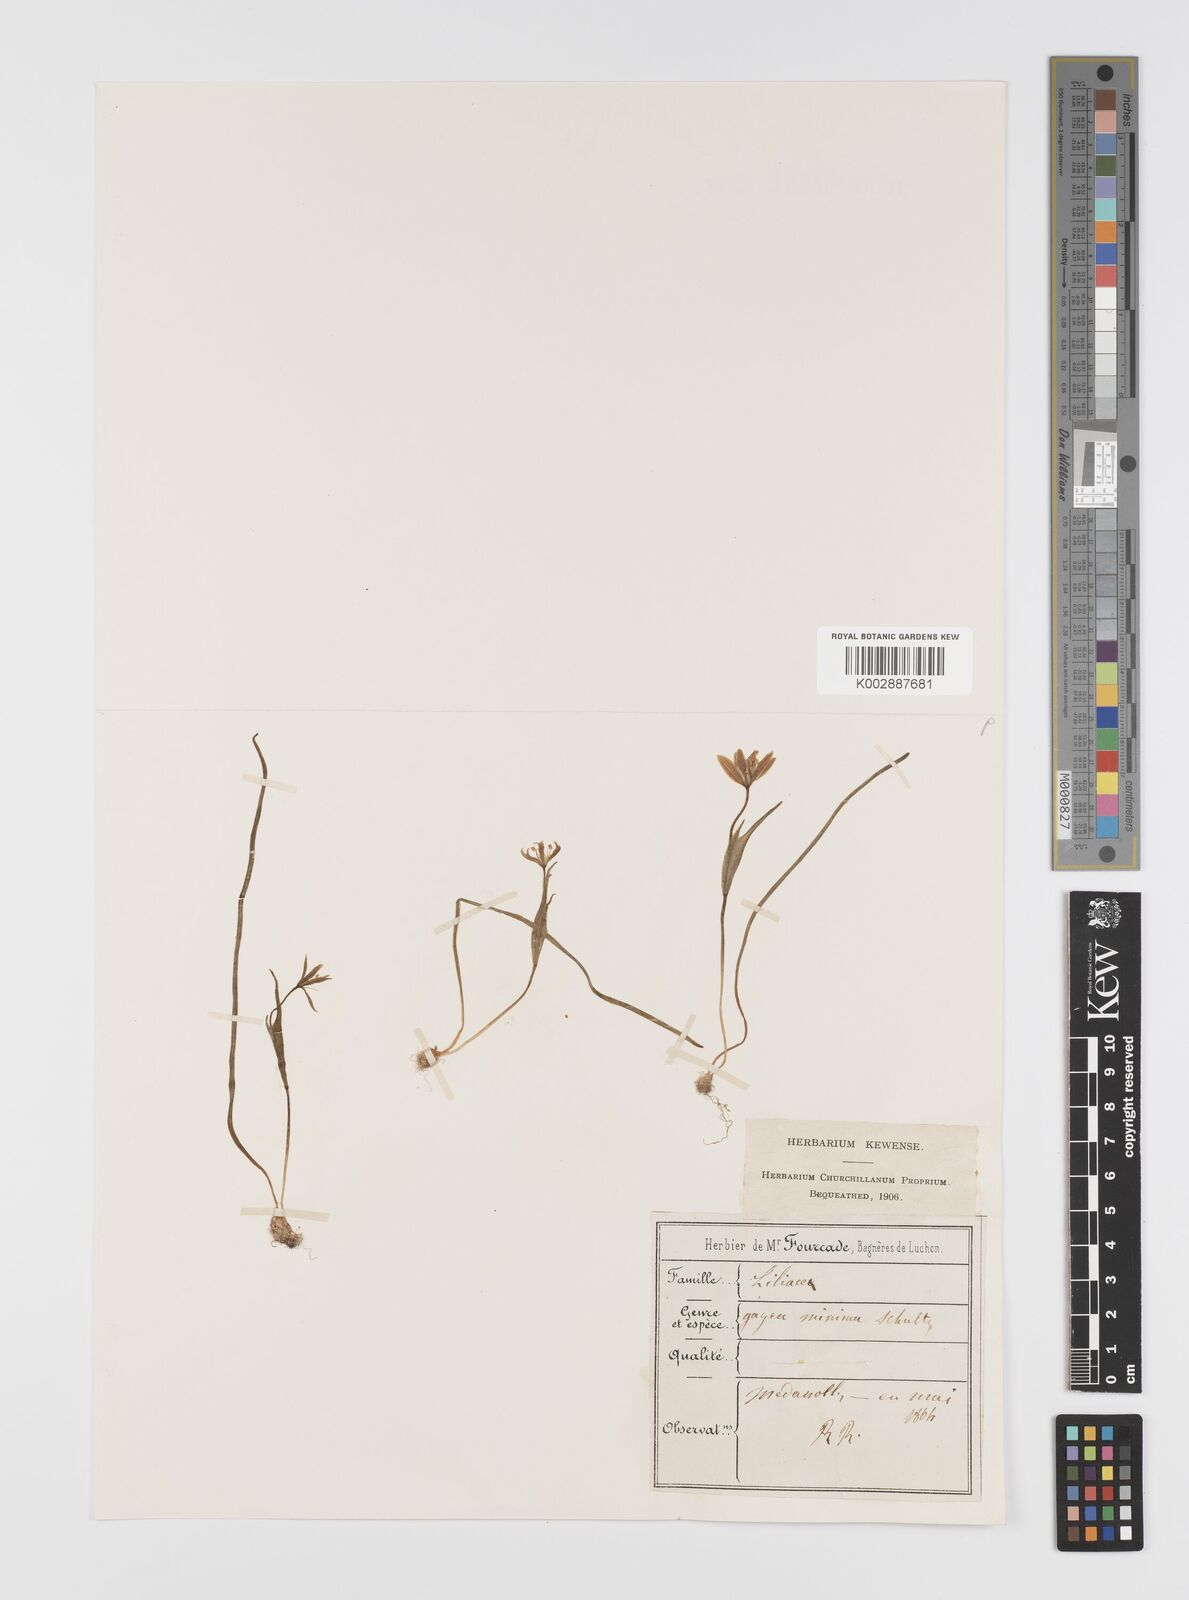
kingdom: Plantae
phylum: Tracheophyta
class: Liliopsida
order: Liliales
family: Liliaceae
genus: Gagea
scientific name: Gagea
